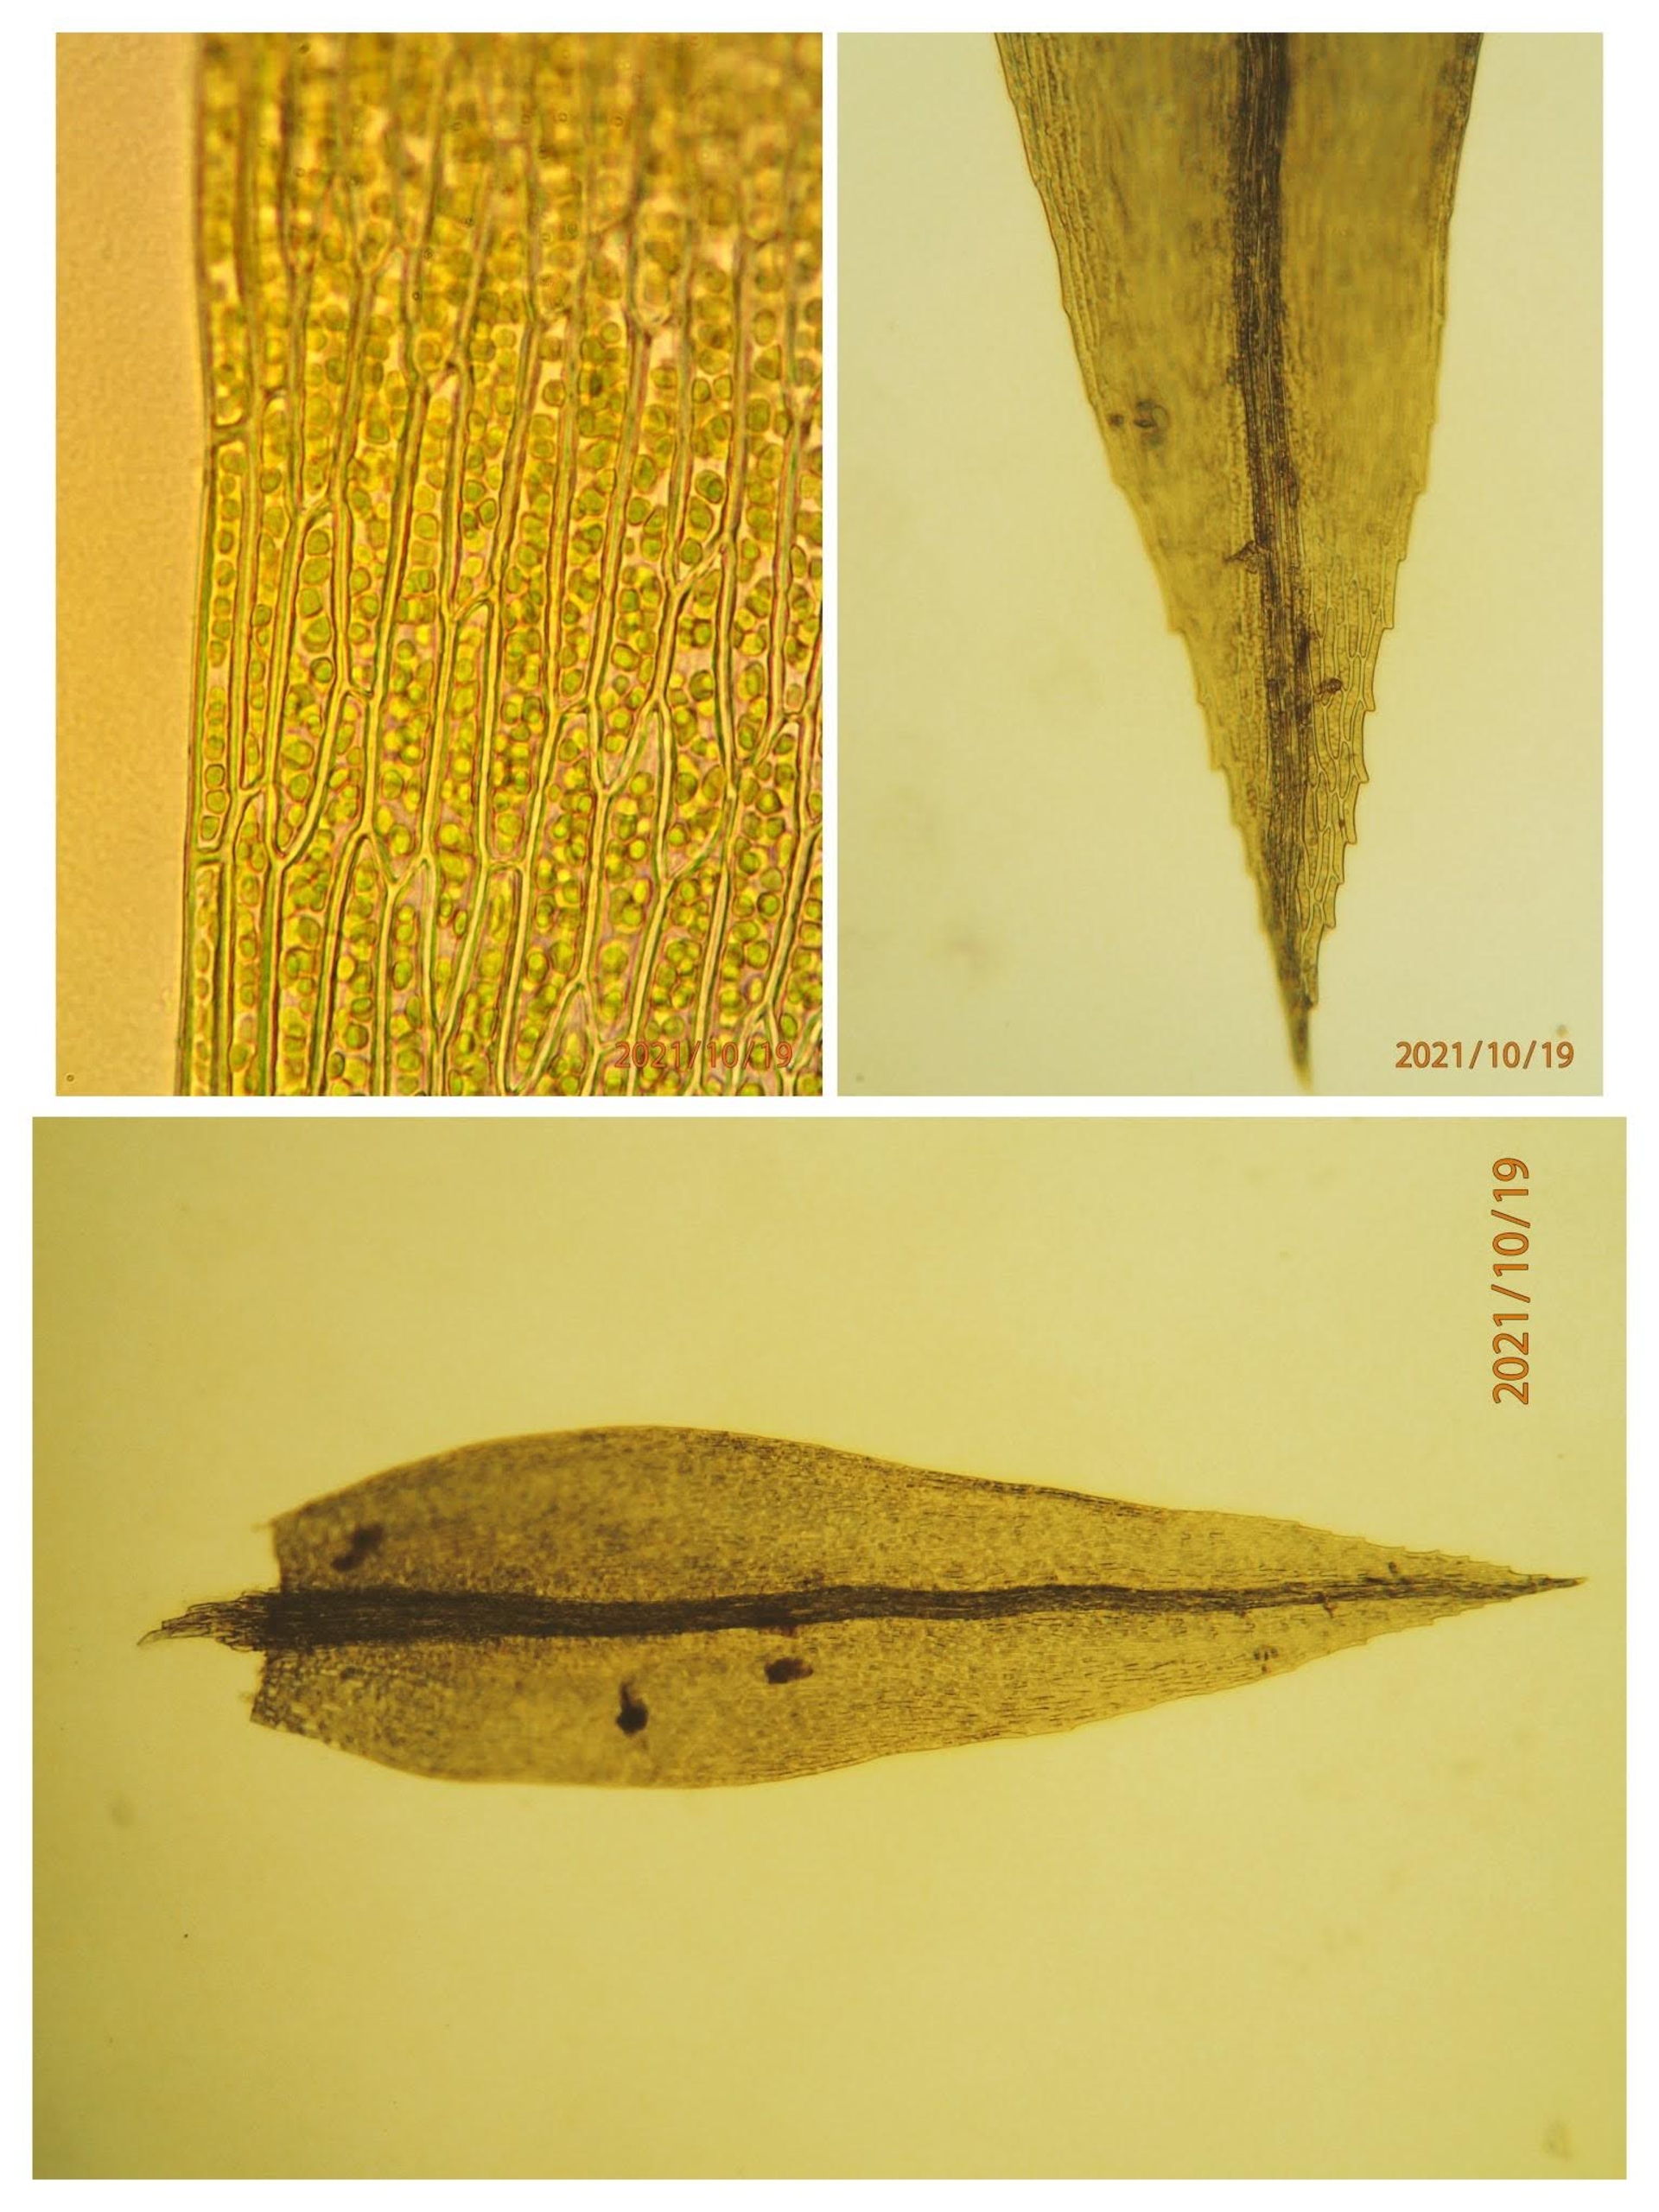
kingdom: Plantae
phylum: Bryophyta
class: Bryopsida
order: Bryales
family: Mniaceae
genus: Pohlia
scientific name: Pohlia nutans
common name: Almindelig nikkemos
